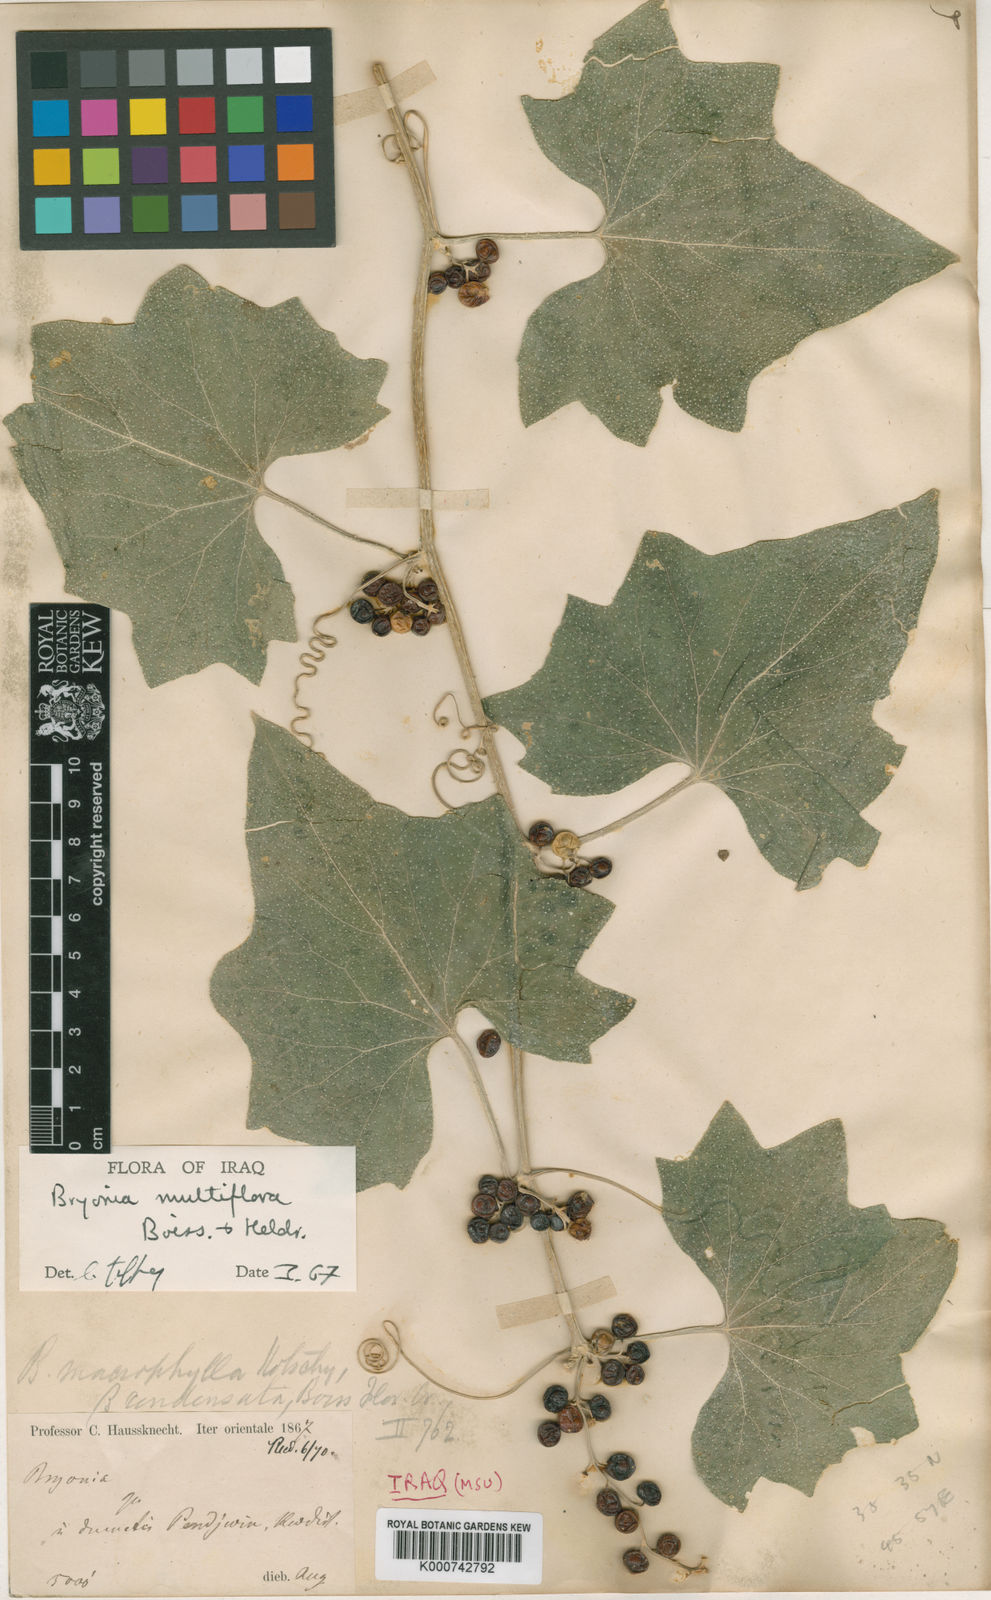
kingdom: Plantae
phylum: Tracheophyta
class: Magnoliopsida
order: Cucurbitales
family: Cucurbitaceae
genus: Bryonia
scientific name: Bryonia multiflora
